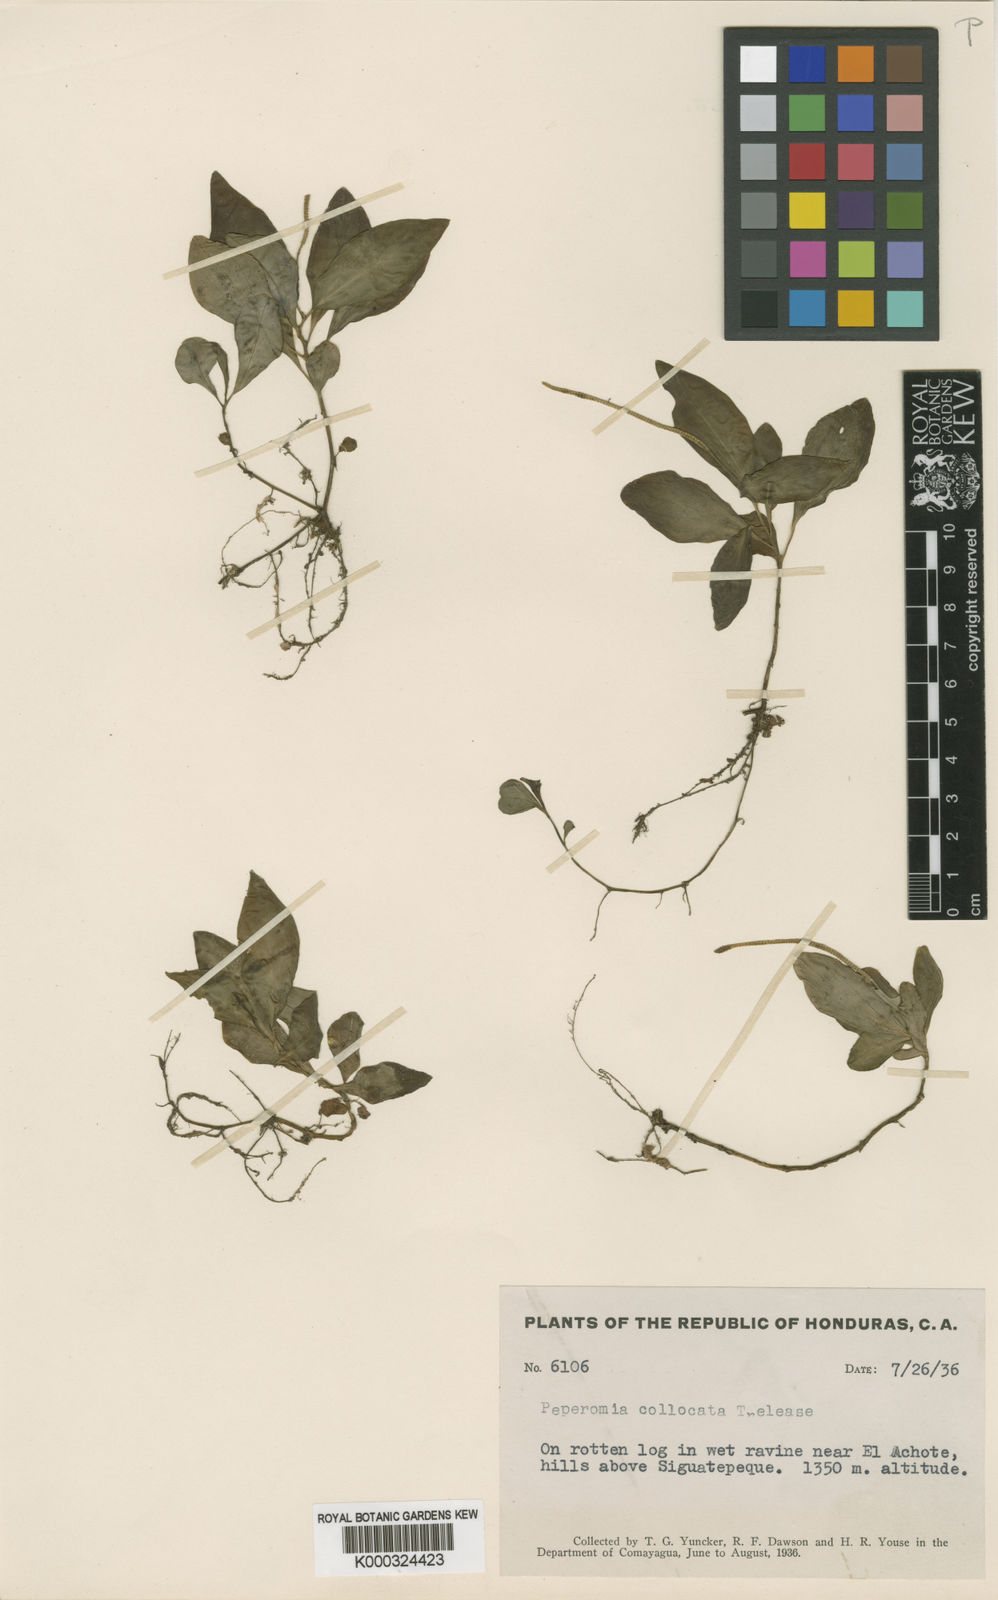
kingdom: Plantae
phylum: Tracheophyta
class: Magnoliopsida
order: Piperales
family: Piperaceae
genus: Peperomia
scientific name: Peperomia san-joseana
